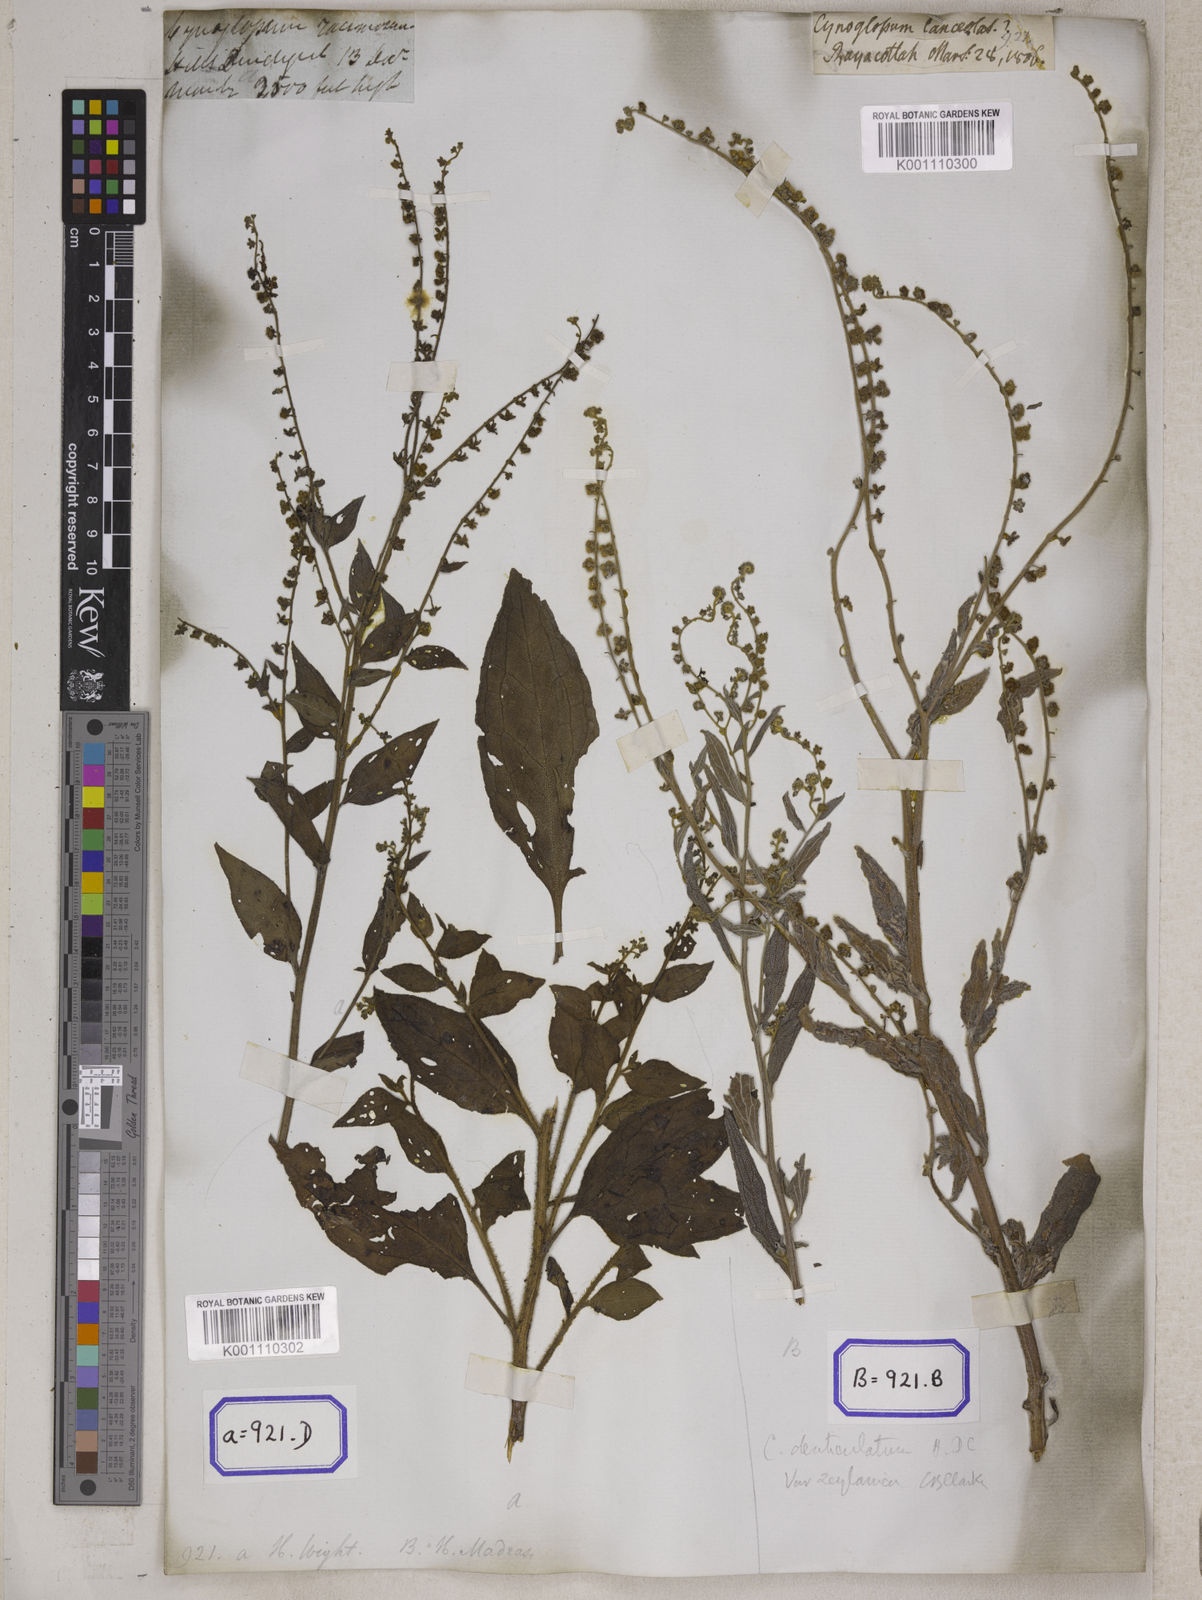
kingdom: Plantae
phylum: Tracheophyta
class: Magnoliopsida
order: Boraginales
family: Boraginaceae
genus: Cynoglossum
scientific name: Cynoglossum
